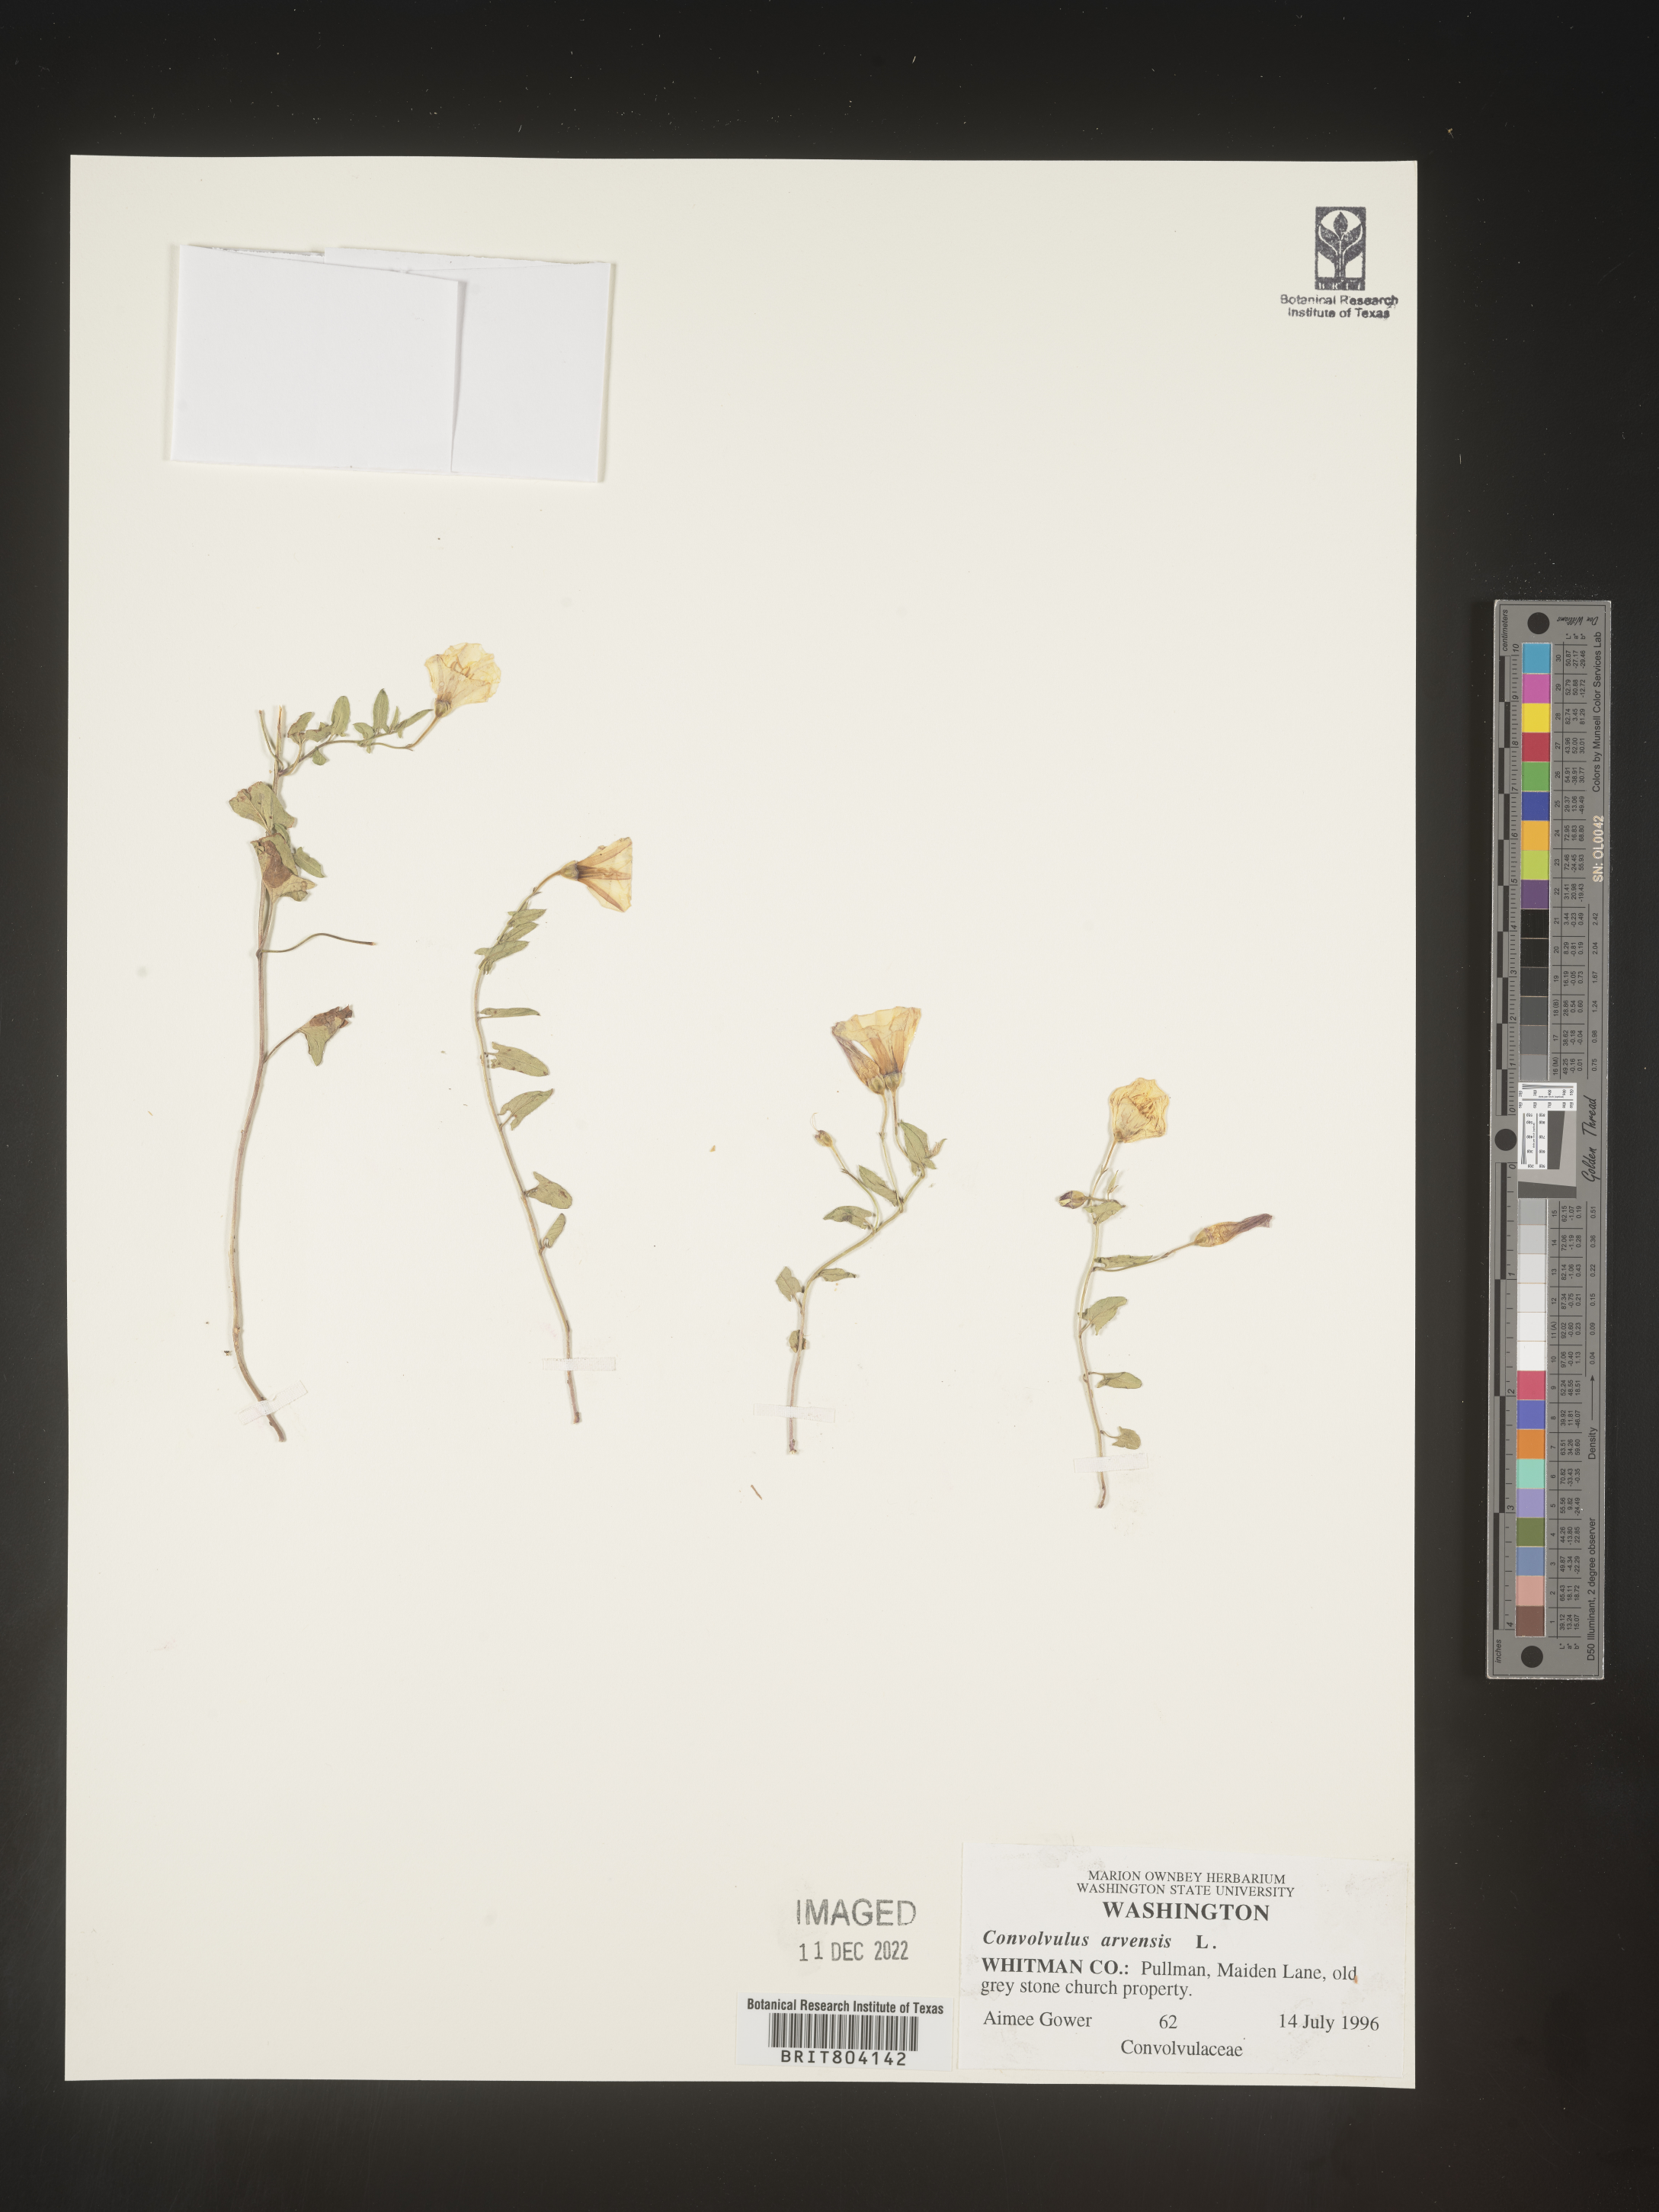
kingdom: Plantae
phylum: Tracheophyta
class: Magnoliopsida
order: Solanales
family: Convolvulaceae
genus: Convolvulus
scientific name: Convolvulus arvensis
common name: Field bindweed
